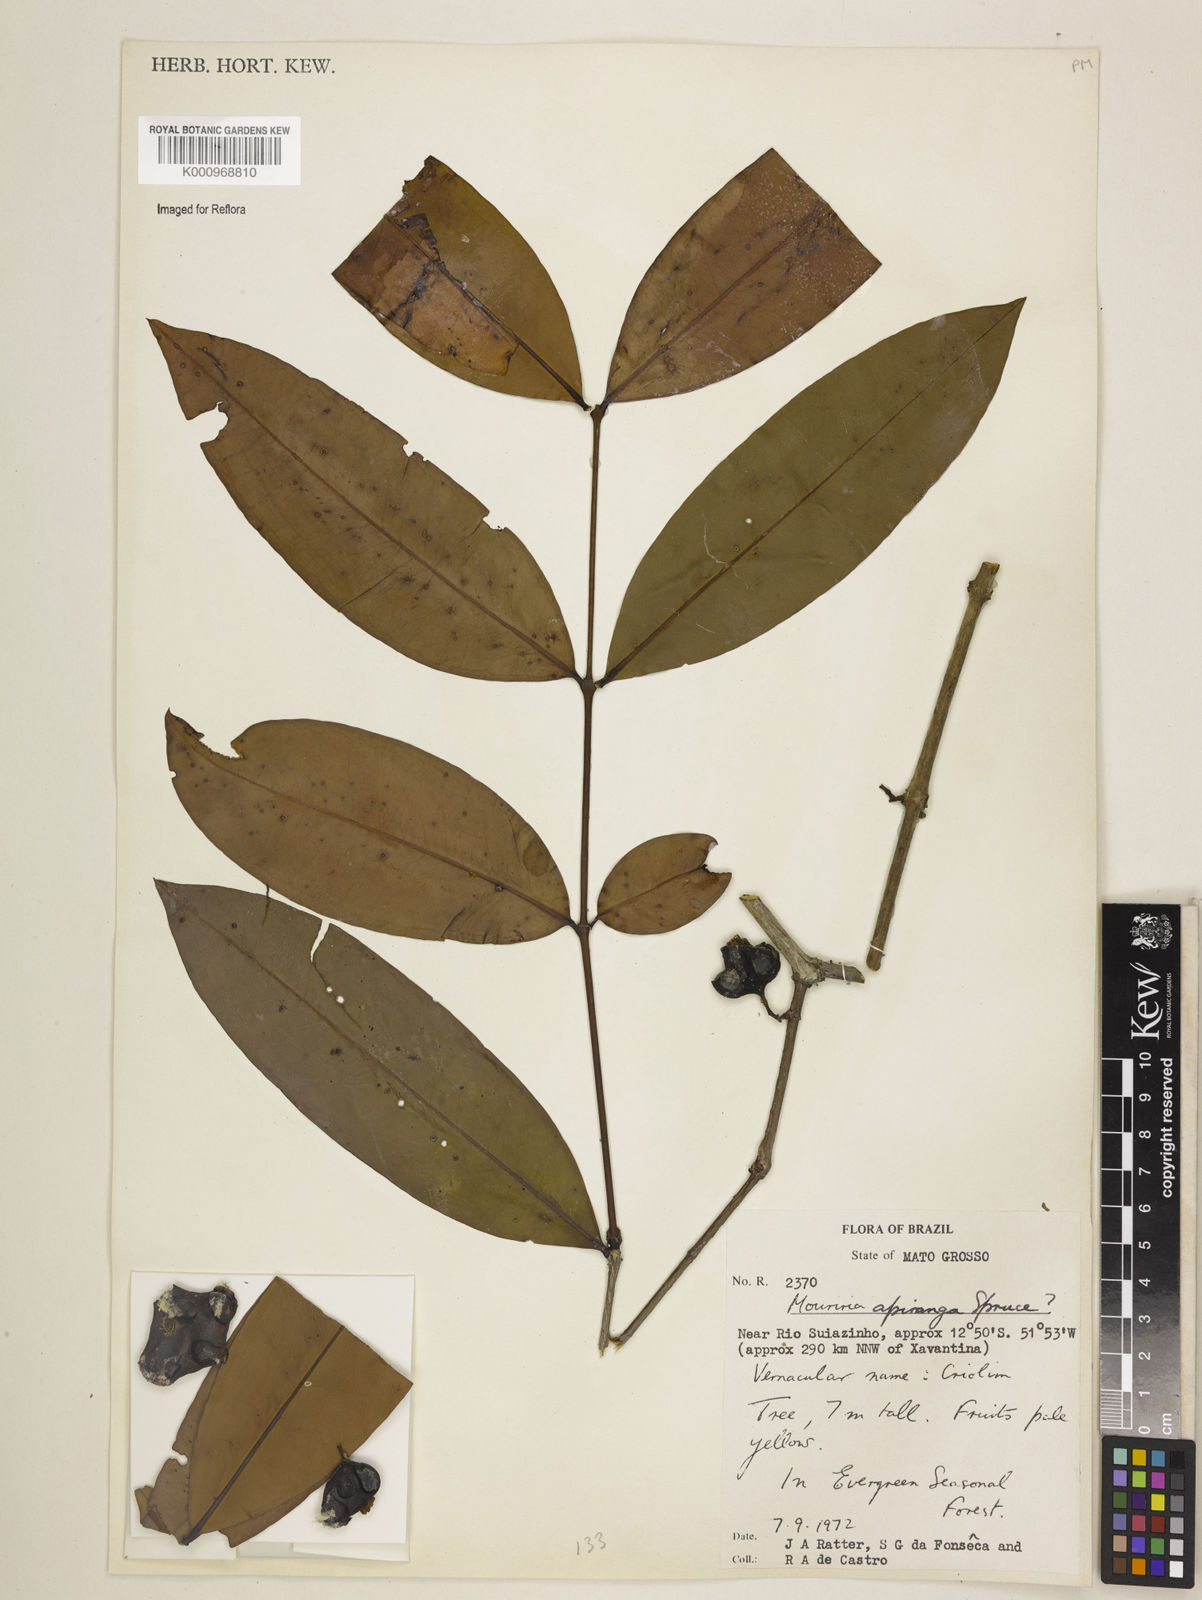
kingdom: Plantae
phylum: Tracheophyta
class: Magnoliopsida
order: Myrtales
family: Melastomataceae
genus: Mouriri
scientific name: Mouriri apiranga
